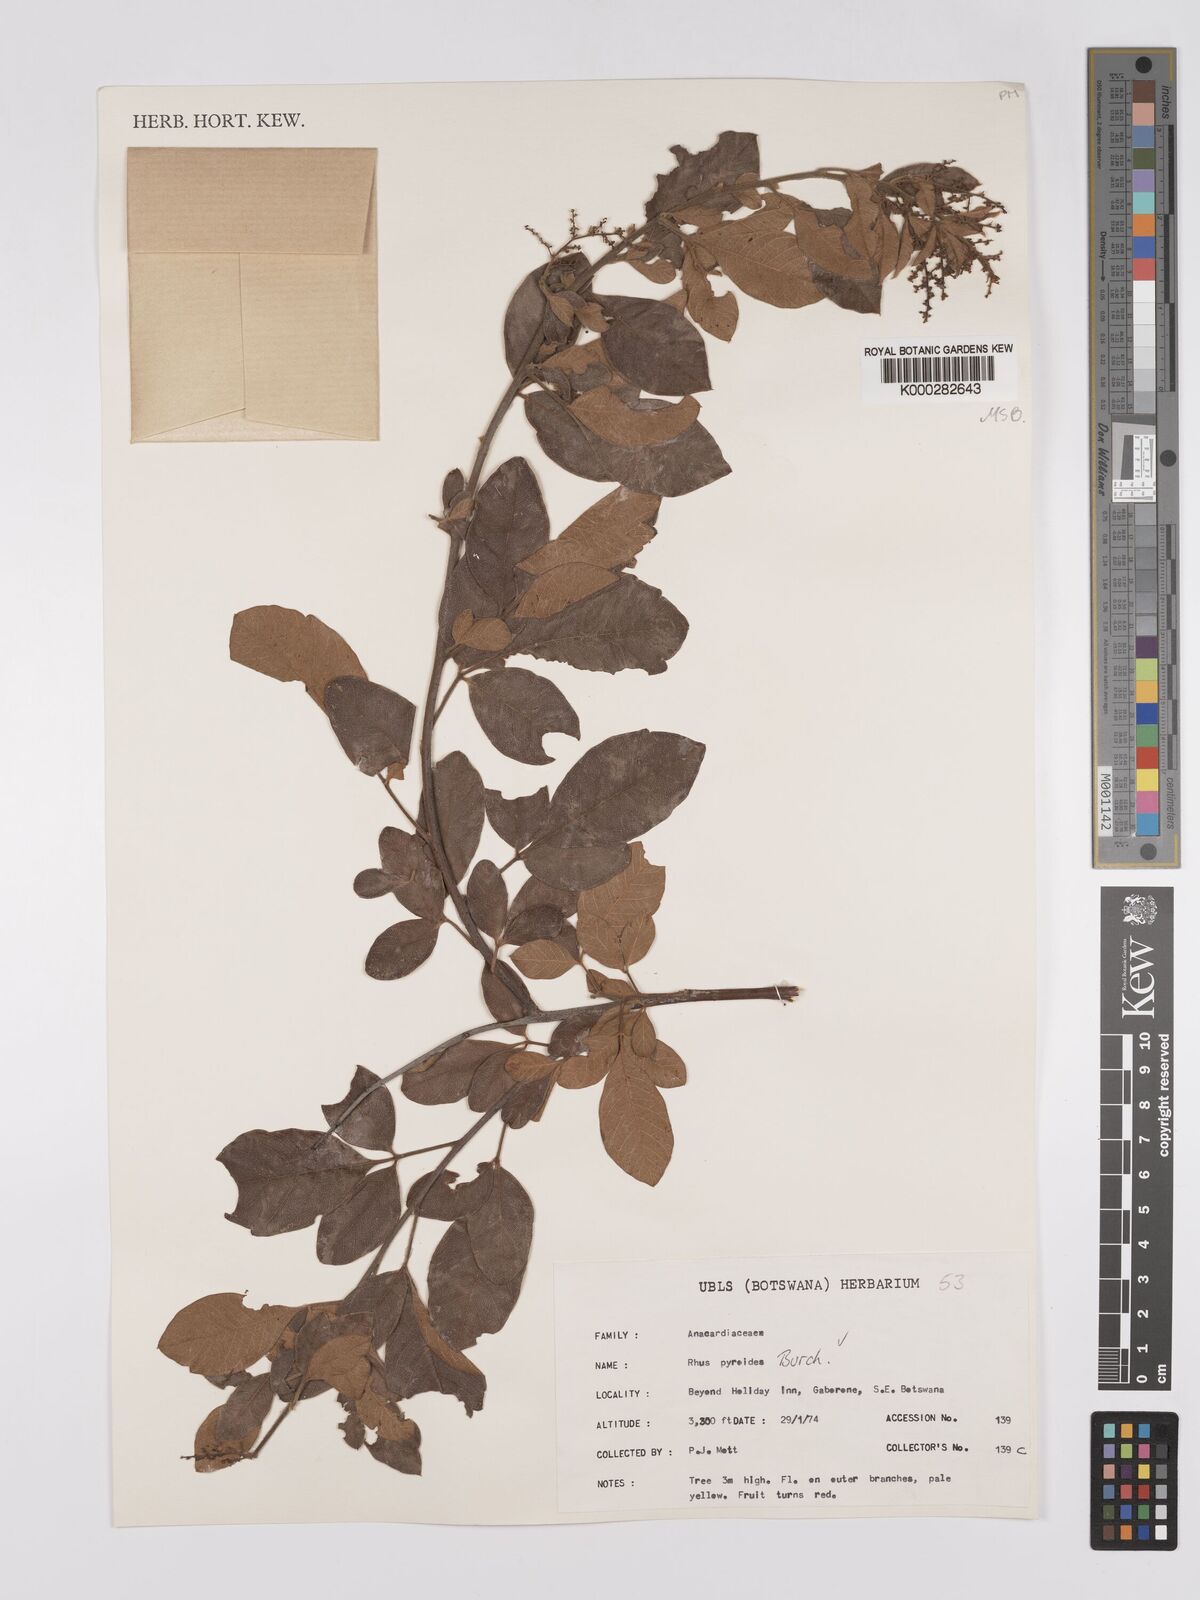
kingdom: Plantae
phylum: Tracheophyta
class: Magnoliopsida
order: Sapindales
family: Anacardiaceae
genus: Searsia
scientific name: Searsia pyroides
